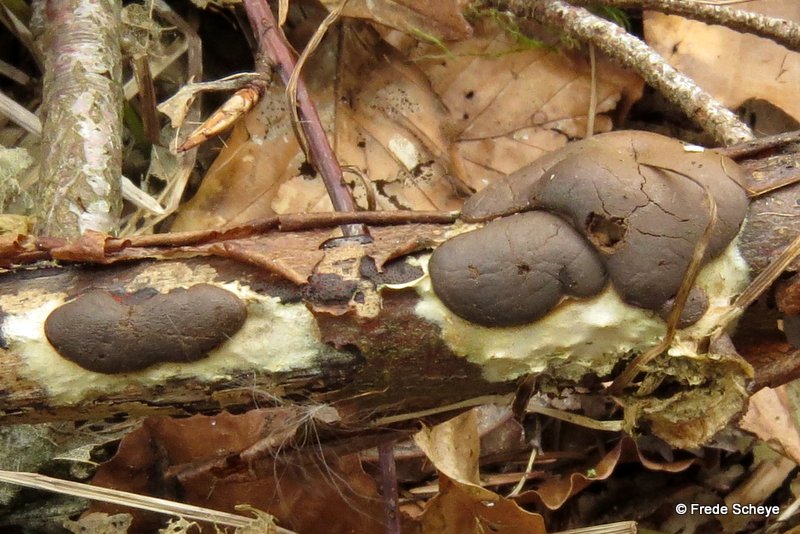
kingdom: Protozoa
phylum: Mycetozoa
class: Myxomycetes
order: Trichiales
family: Dictydiaethaliaceae
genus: Dictydiaethalium
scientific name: Dictydiaethalium plumbeum
